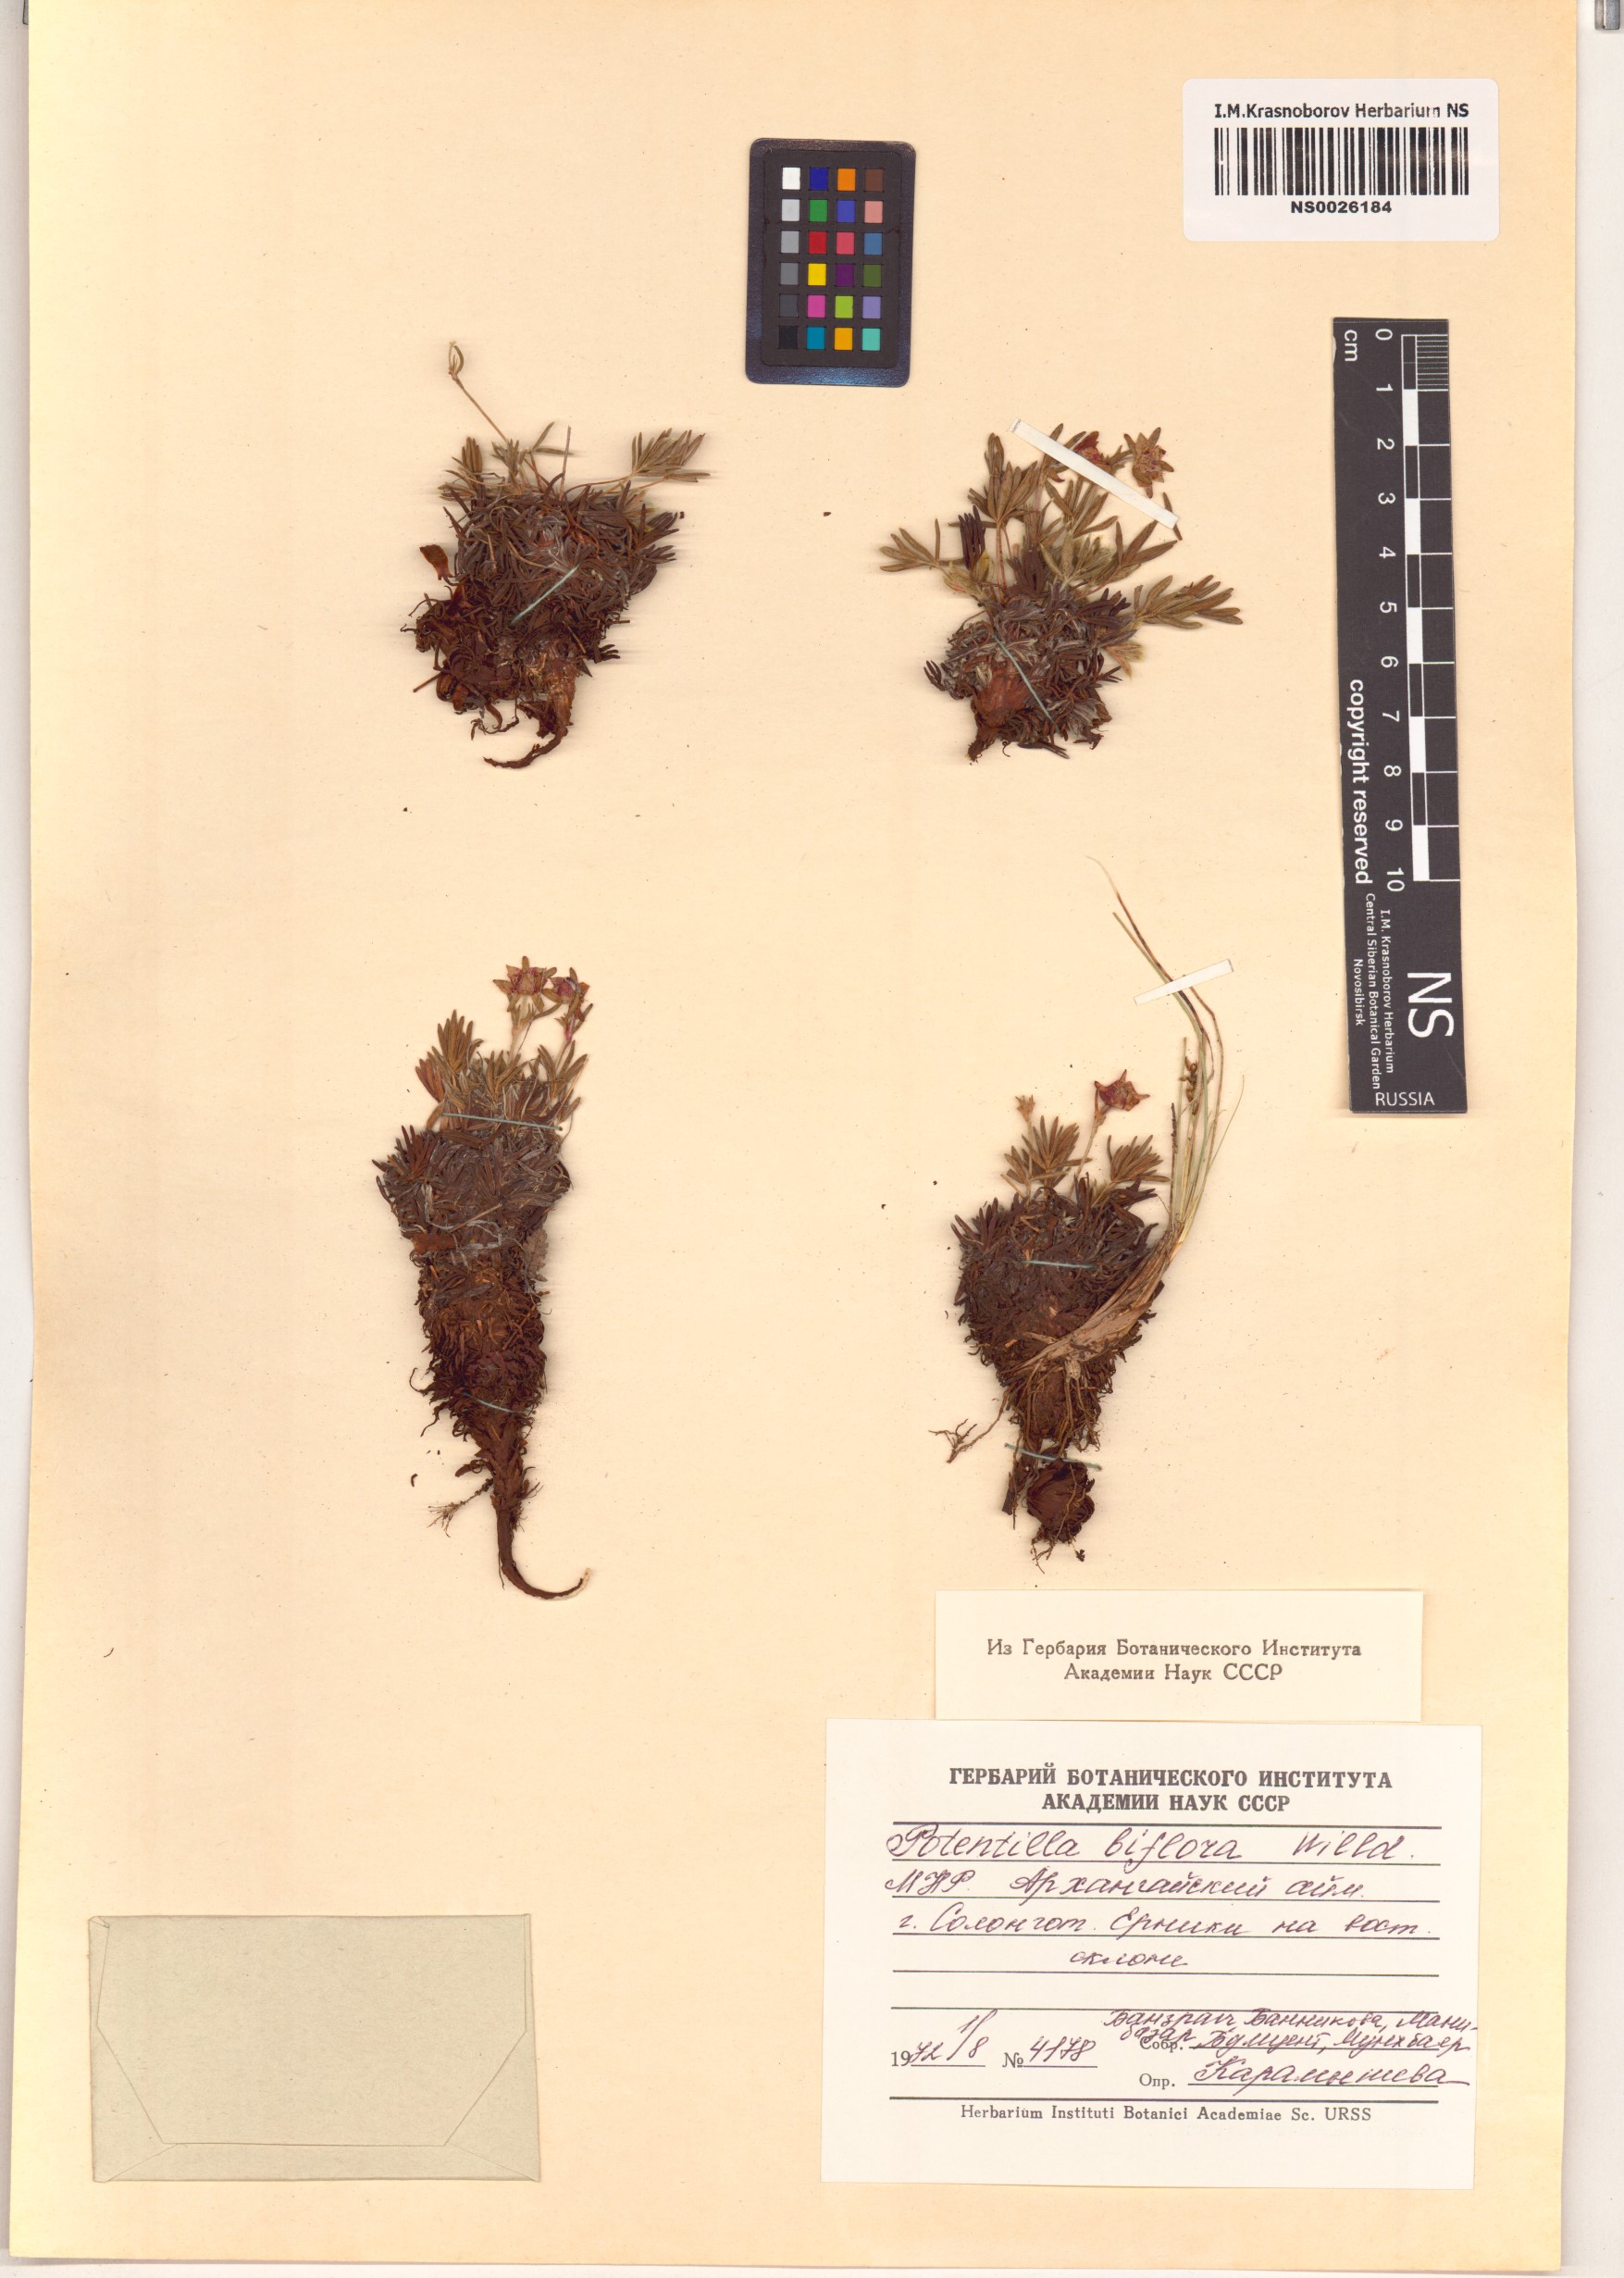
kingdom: Plantae
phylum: Tracheophyta
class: Magnoliopsida
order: Rosales
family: Rosaceae
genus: Potentilla
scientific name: Potentilla biflora
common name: Two-flowered cinquefoil
